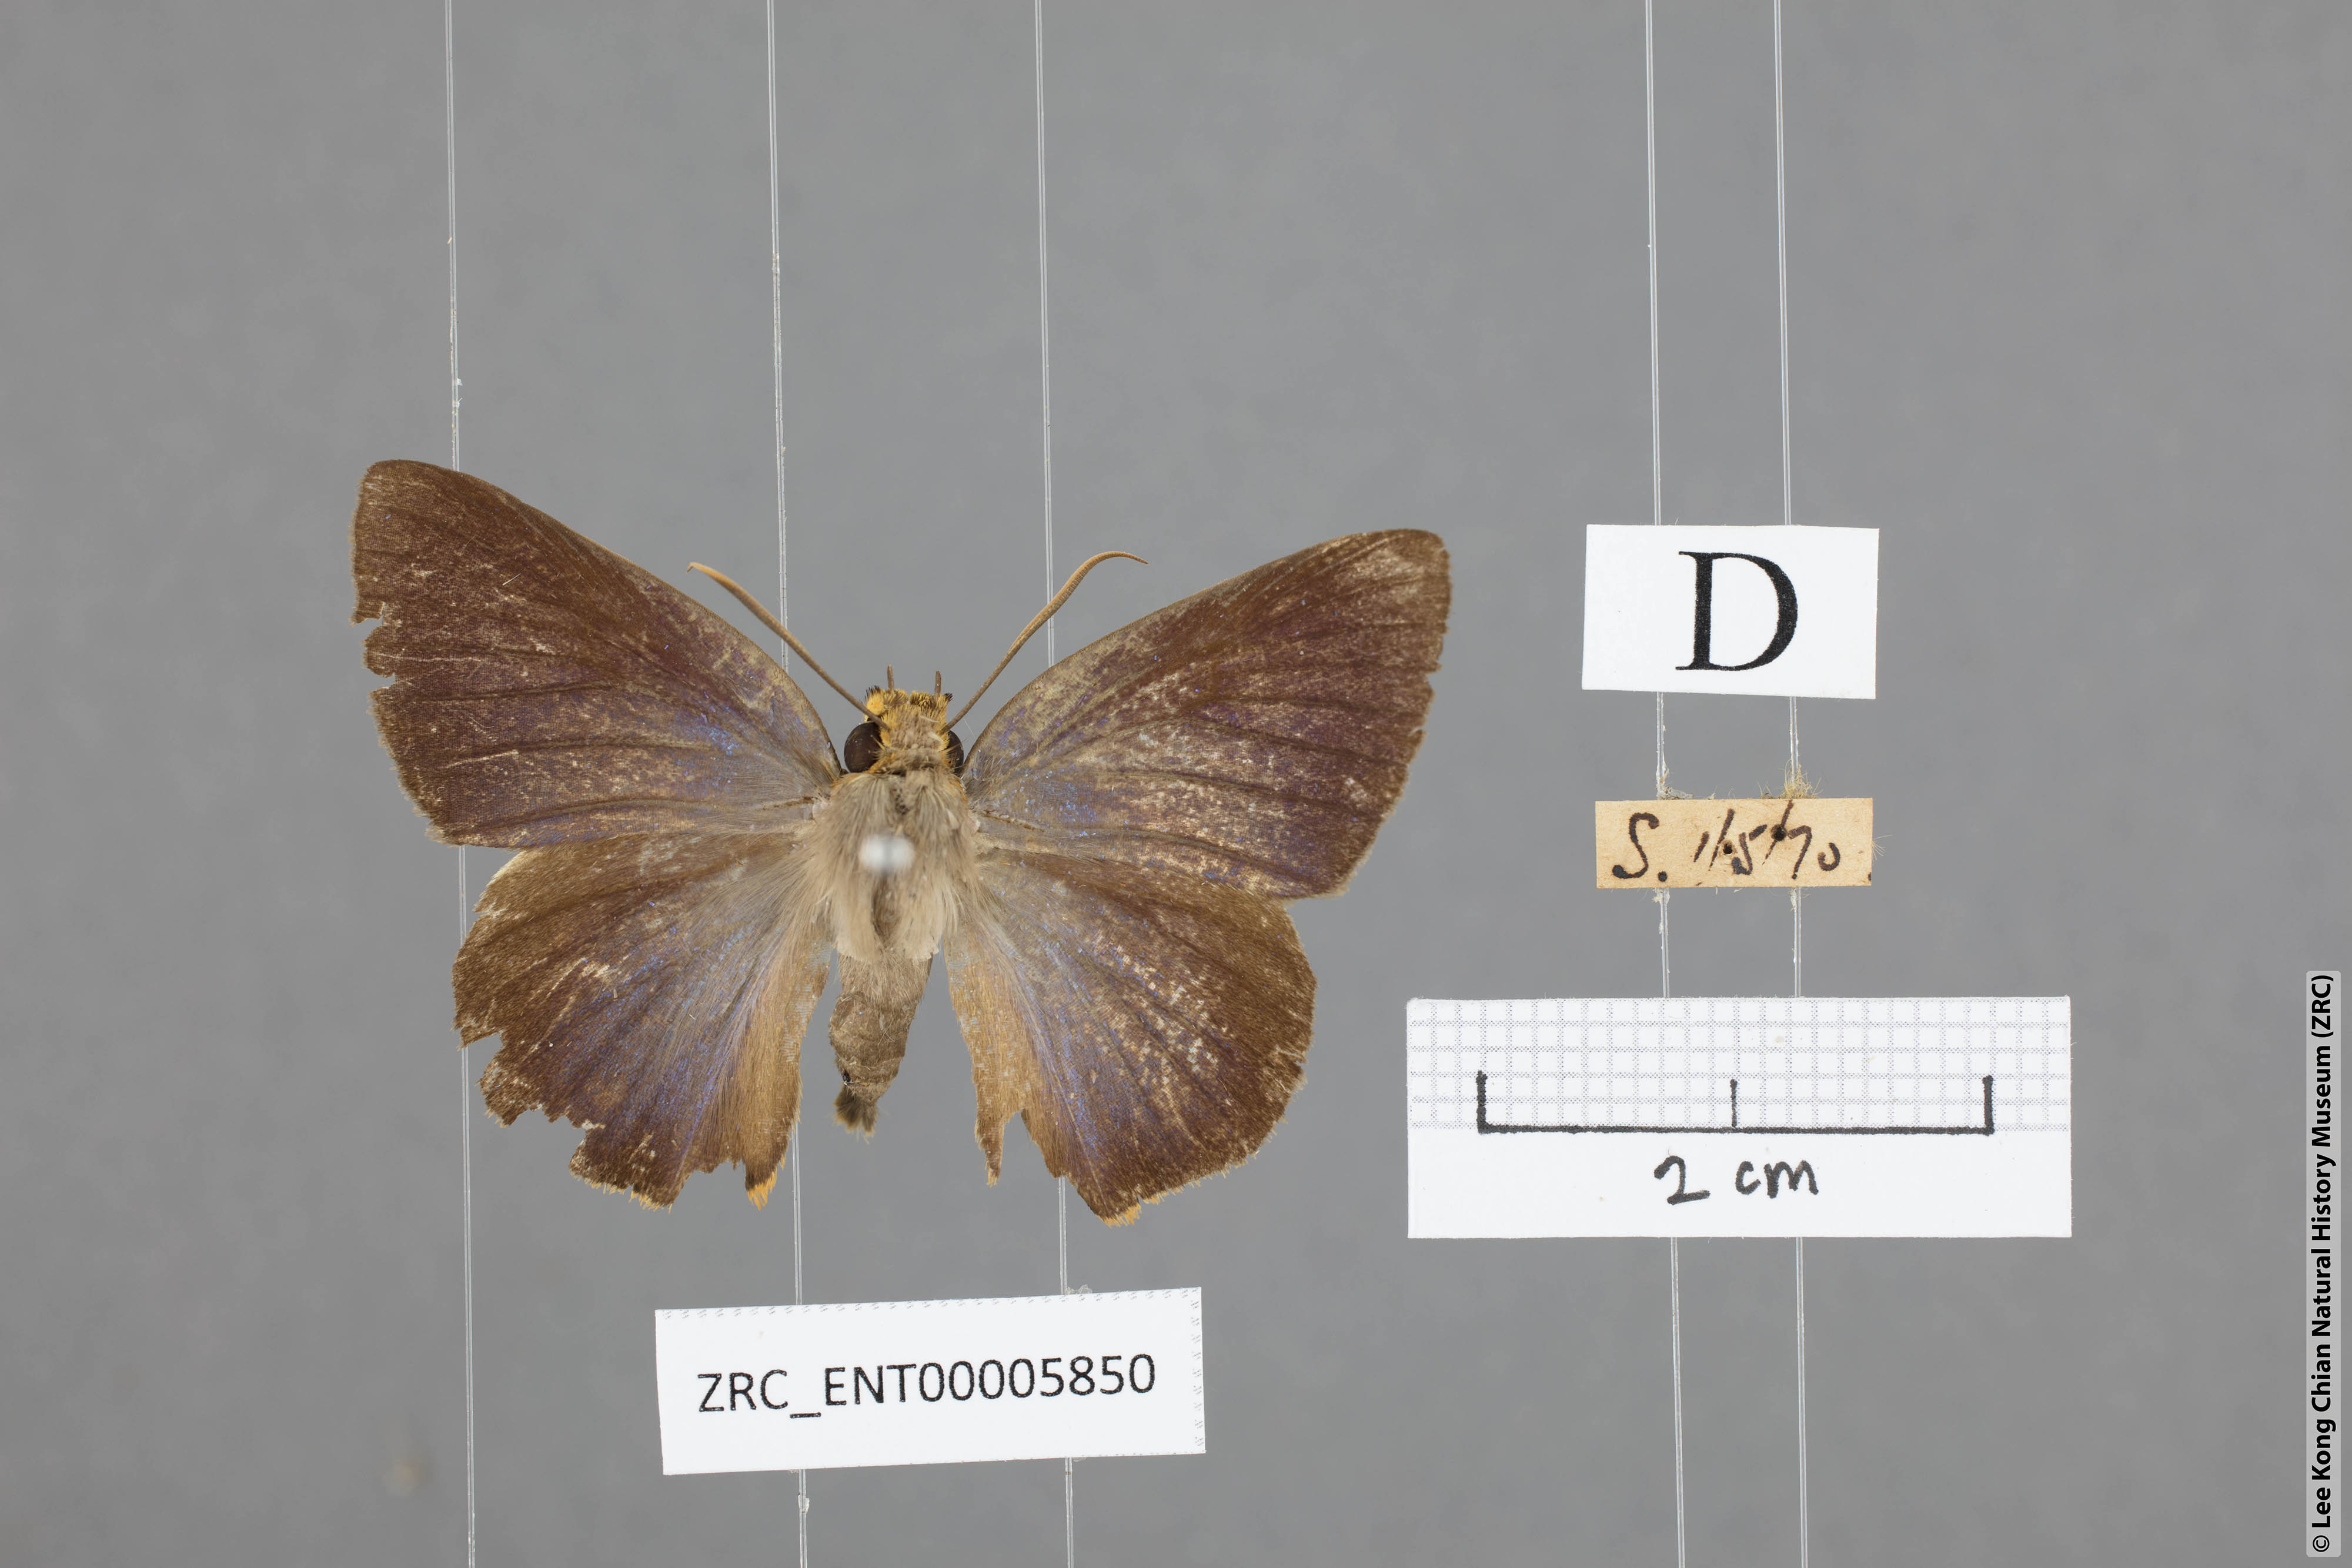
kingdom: Animalia
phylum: Arthropoda
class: Insecta
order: Lepidoptera
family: Hesperiidae
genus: Bibasis
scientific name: Bibasis Burara harisa
